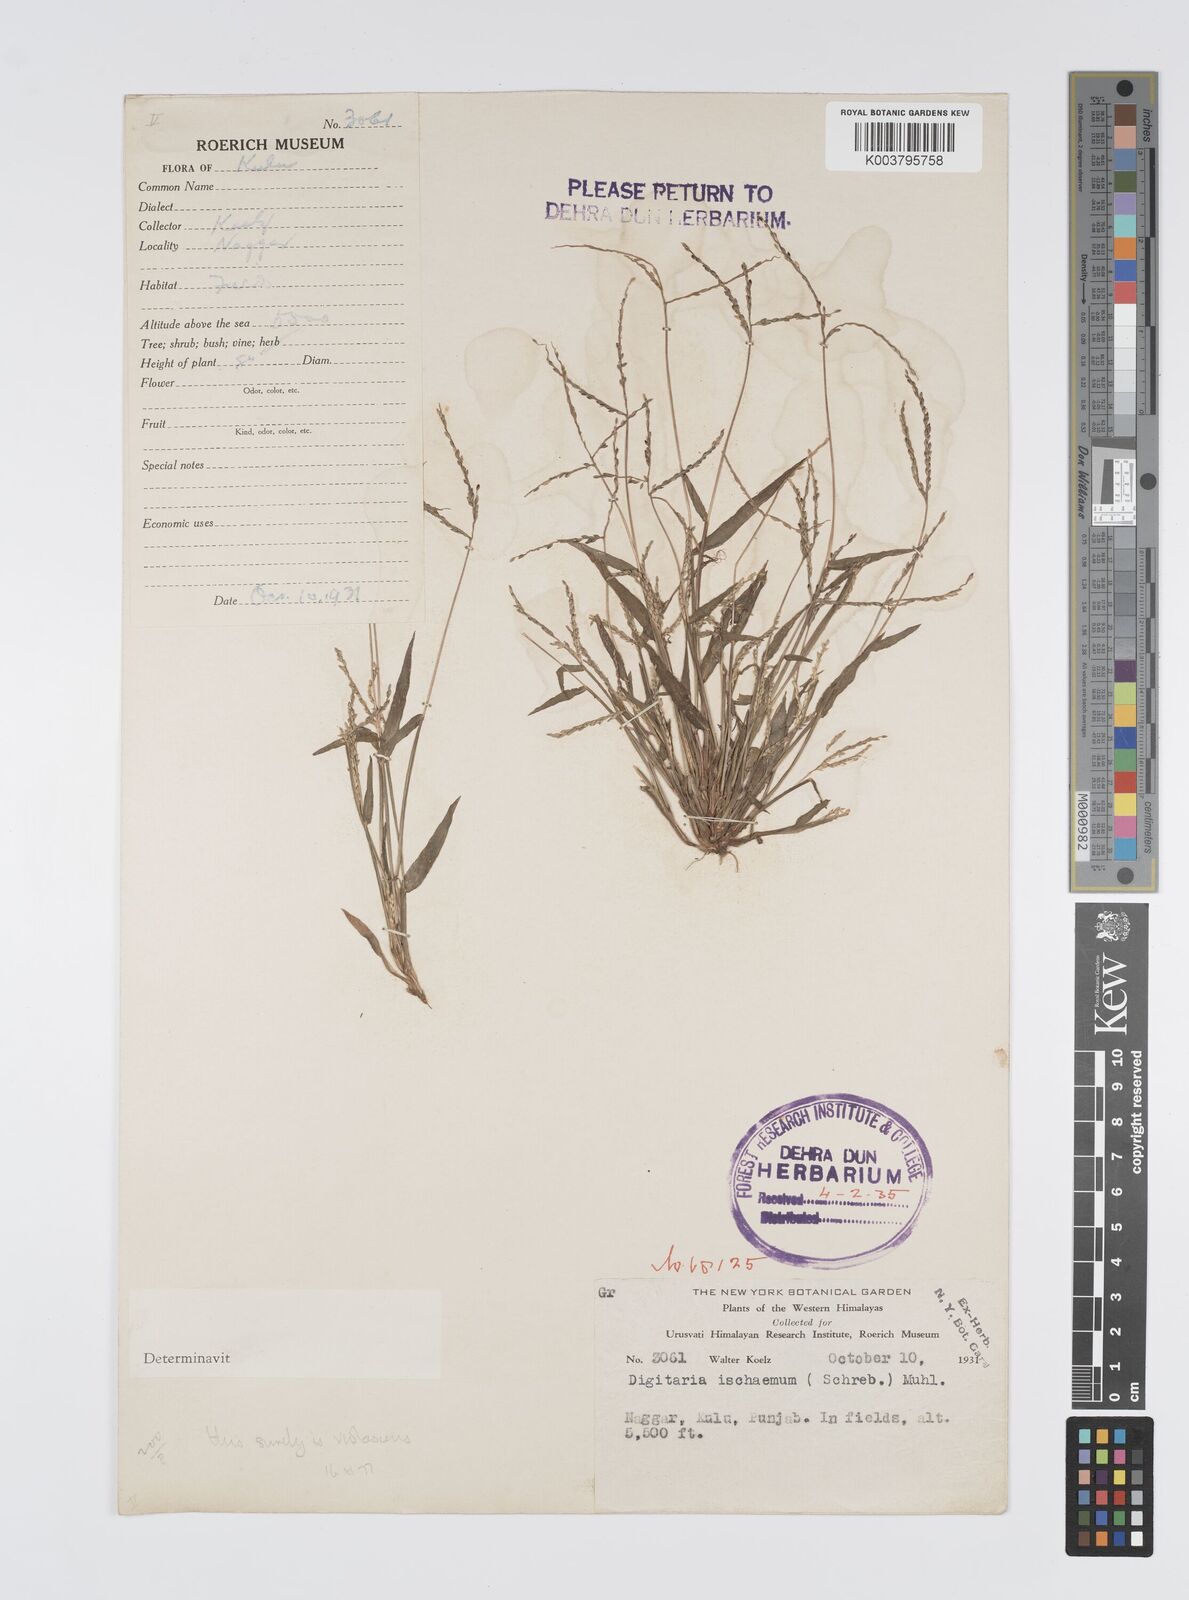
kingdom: Plantae
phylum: Tracheophyta
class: Liliopsida
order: Poales
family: Poaceae
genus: Digitaria
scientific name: Digitaria violascens
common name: Violet crabgrass
